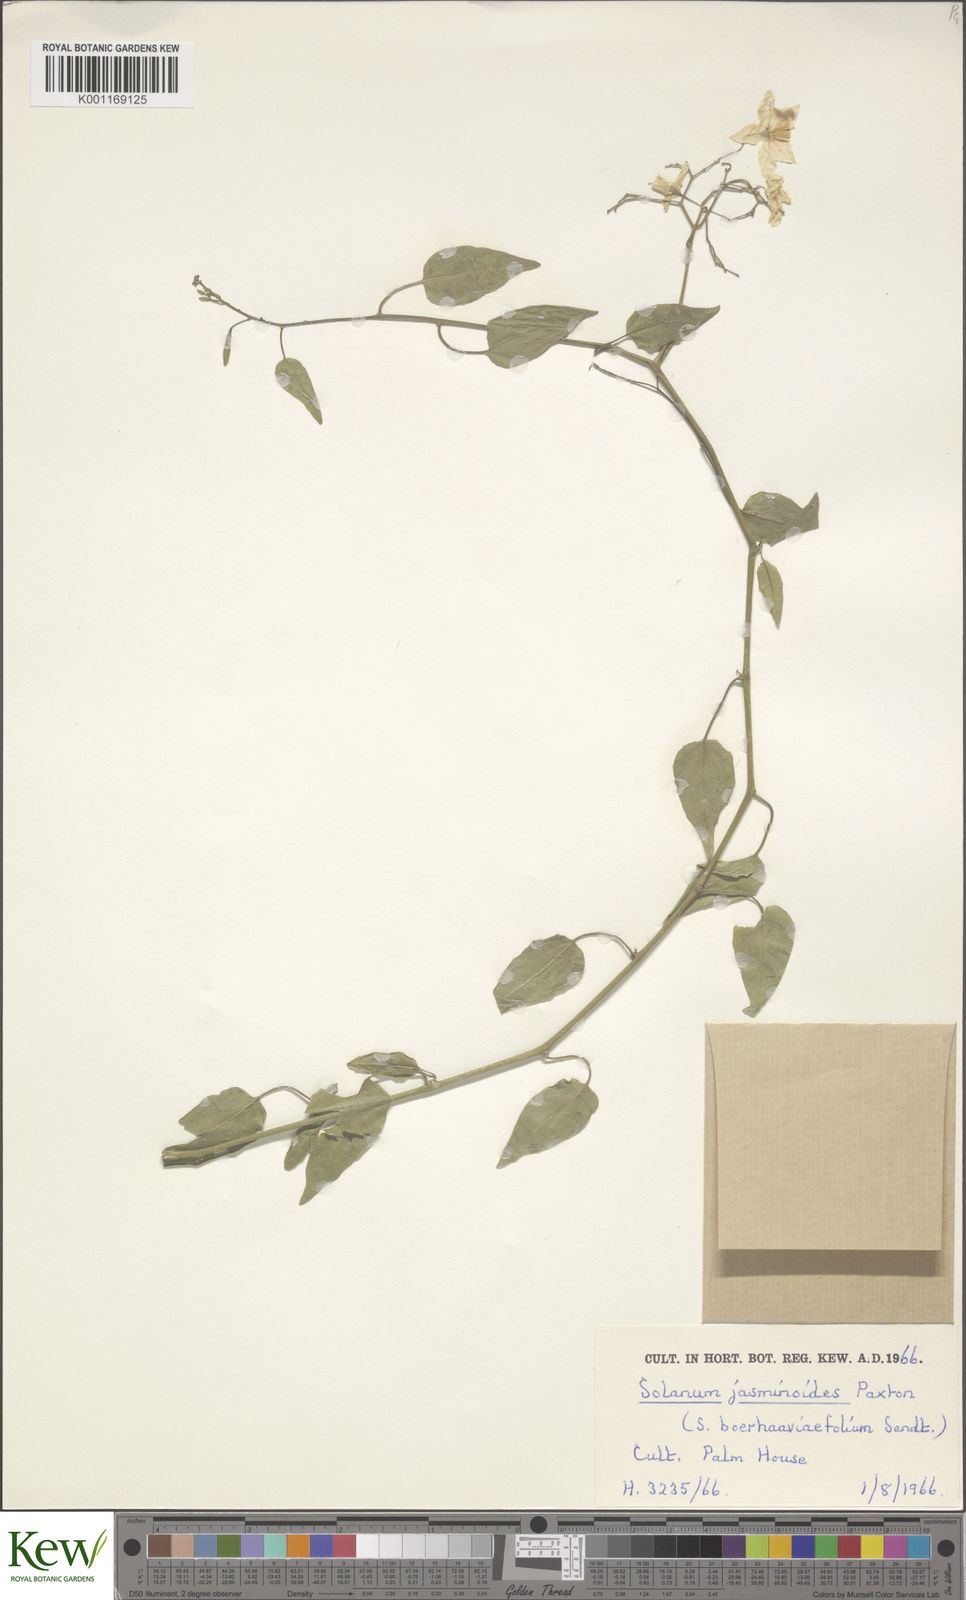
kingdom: Plantae
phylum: Tracheophyta
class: Magnoliopsida
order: Solanales
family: Solanaceae
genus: Solanum
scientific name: Solanum laxum
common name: Nightshade
